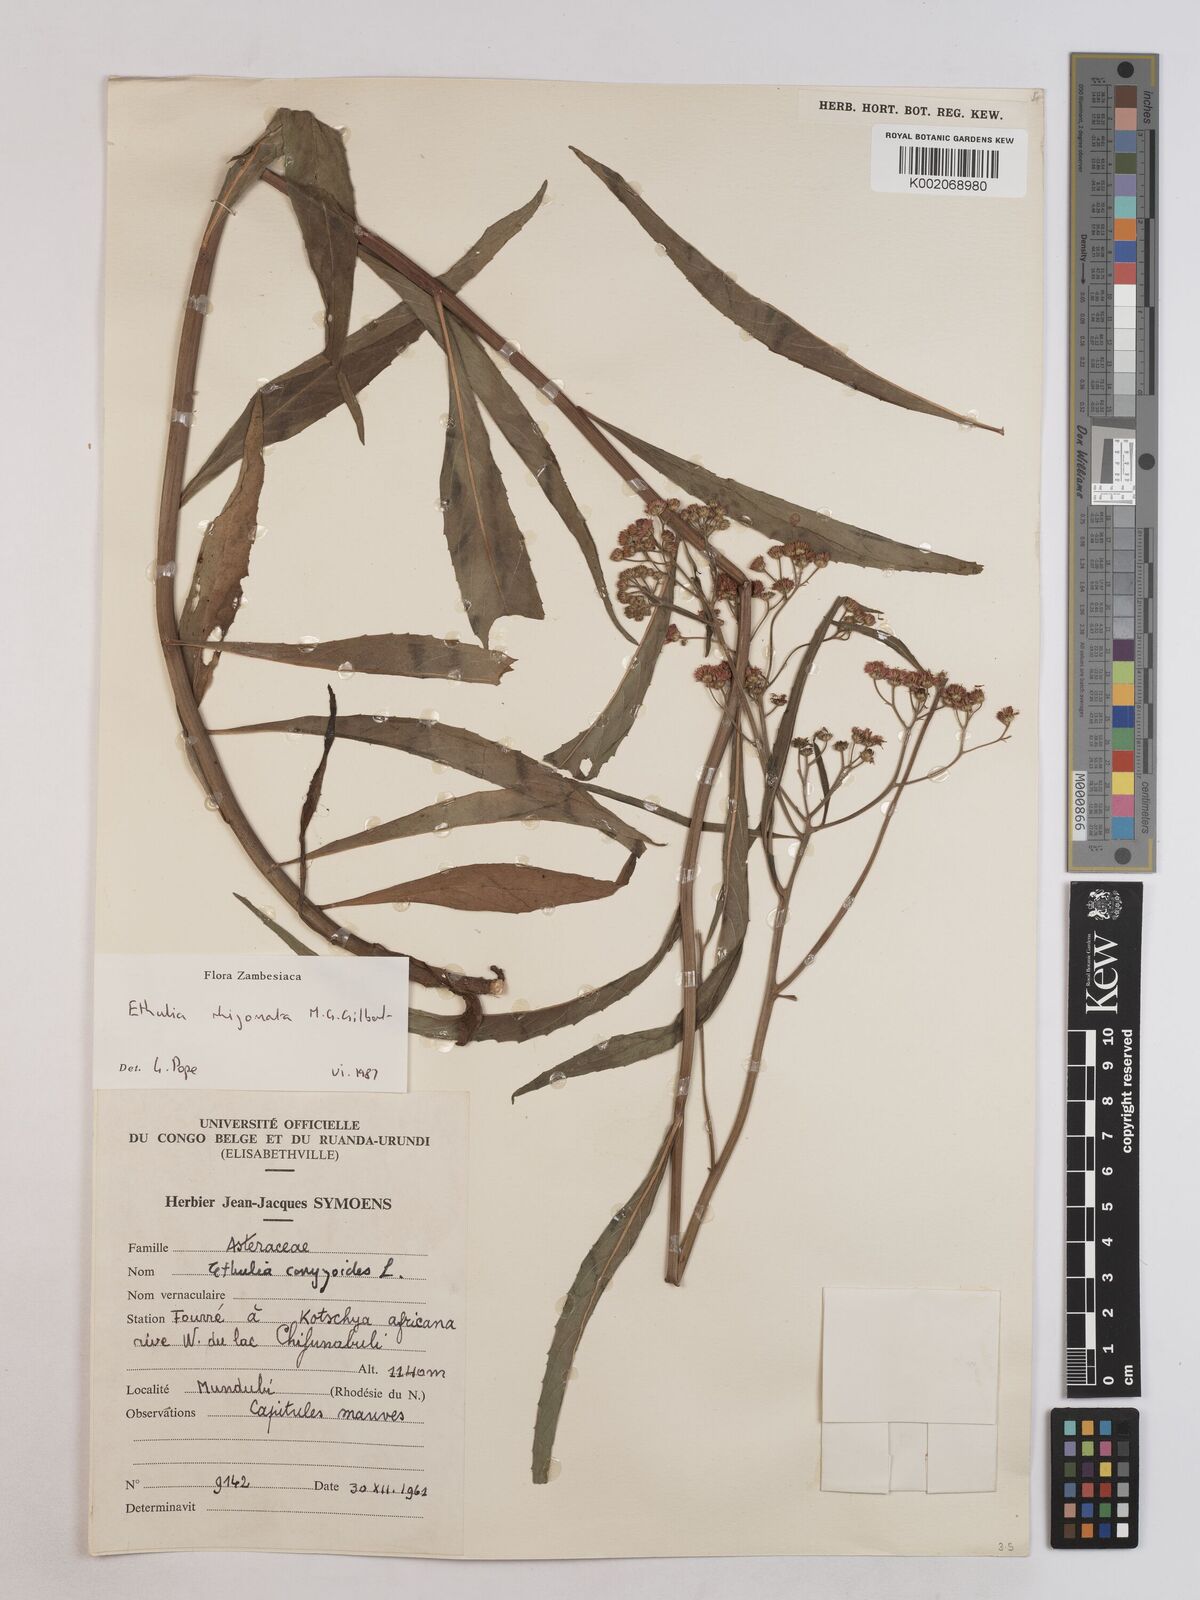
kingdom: Plantae
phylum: Tracheophyta
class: Magnoliopsida
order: Asterales
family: Asteraceae
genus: Ethulia
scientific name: Ethulia rhizomata
